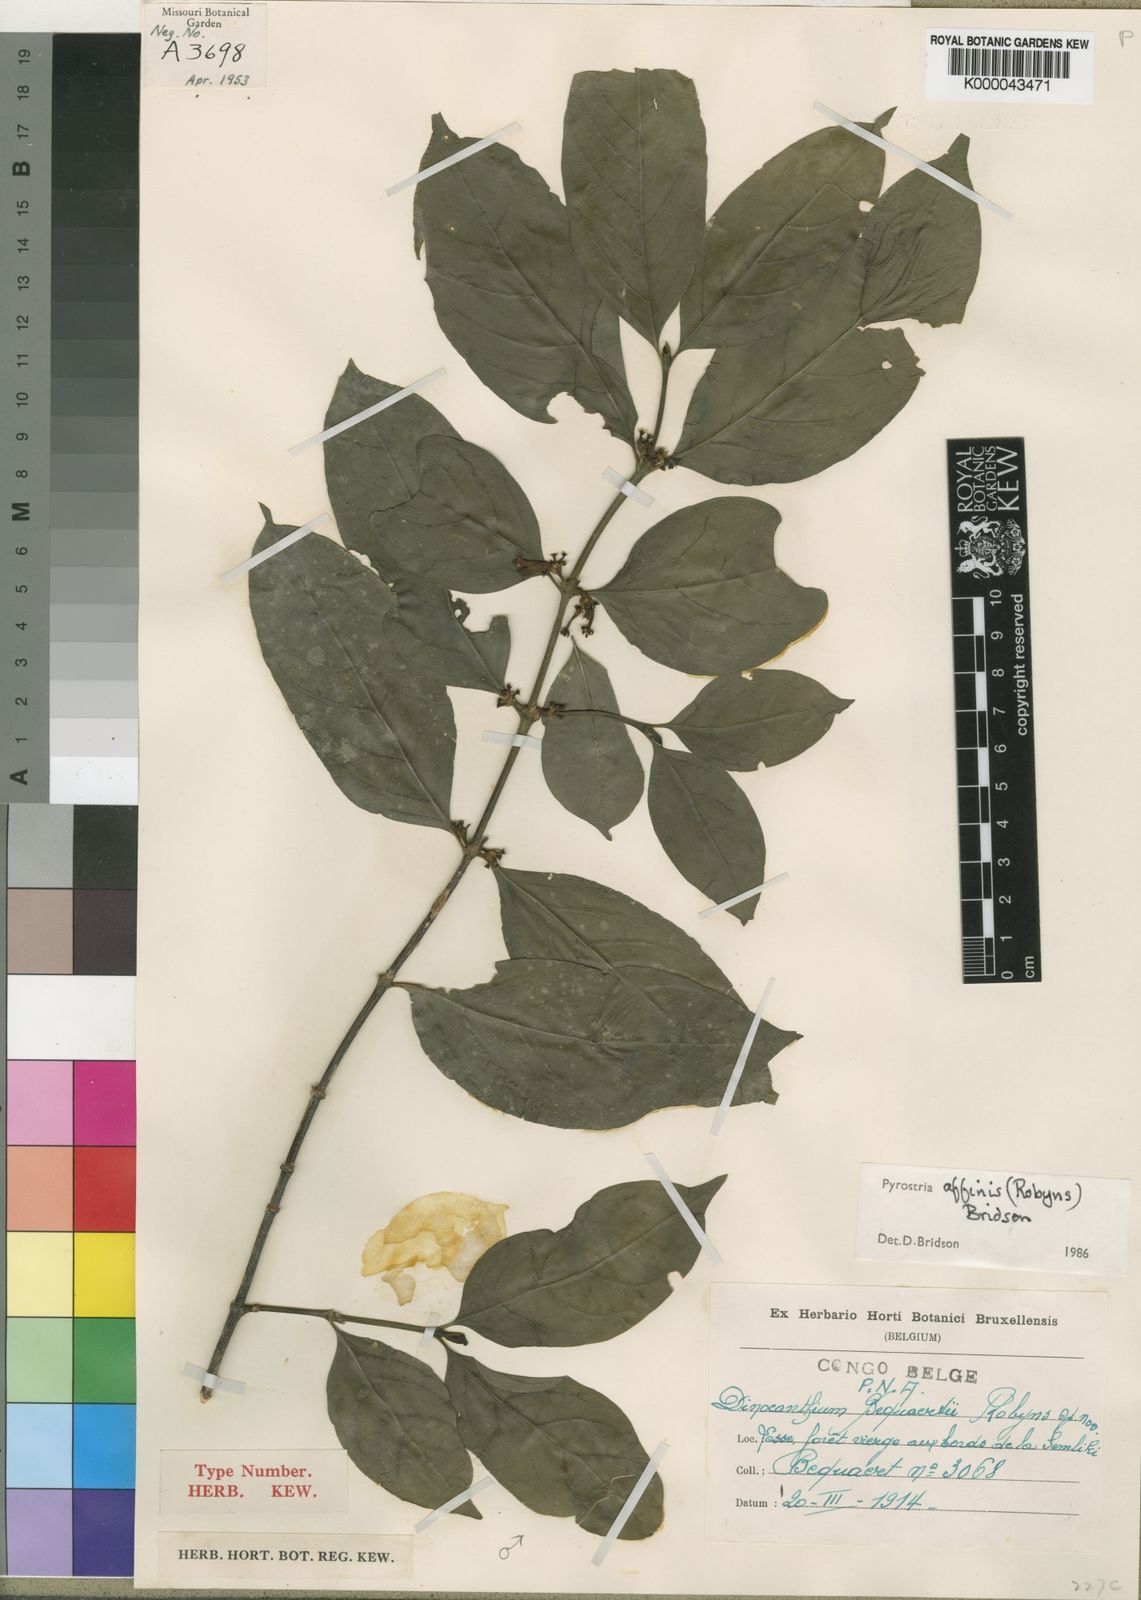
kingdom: Plantae
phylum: Tracheophyta
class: Magnoliopsida
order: Gentianales
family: Rubiaceae
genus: Pyrostria
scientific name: Pyrostria affinis
